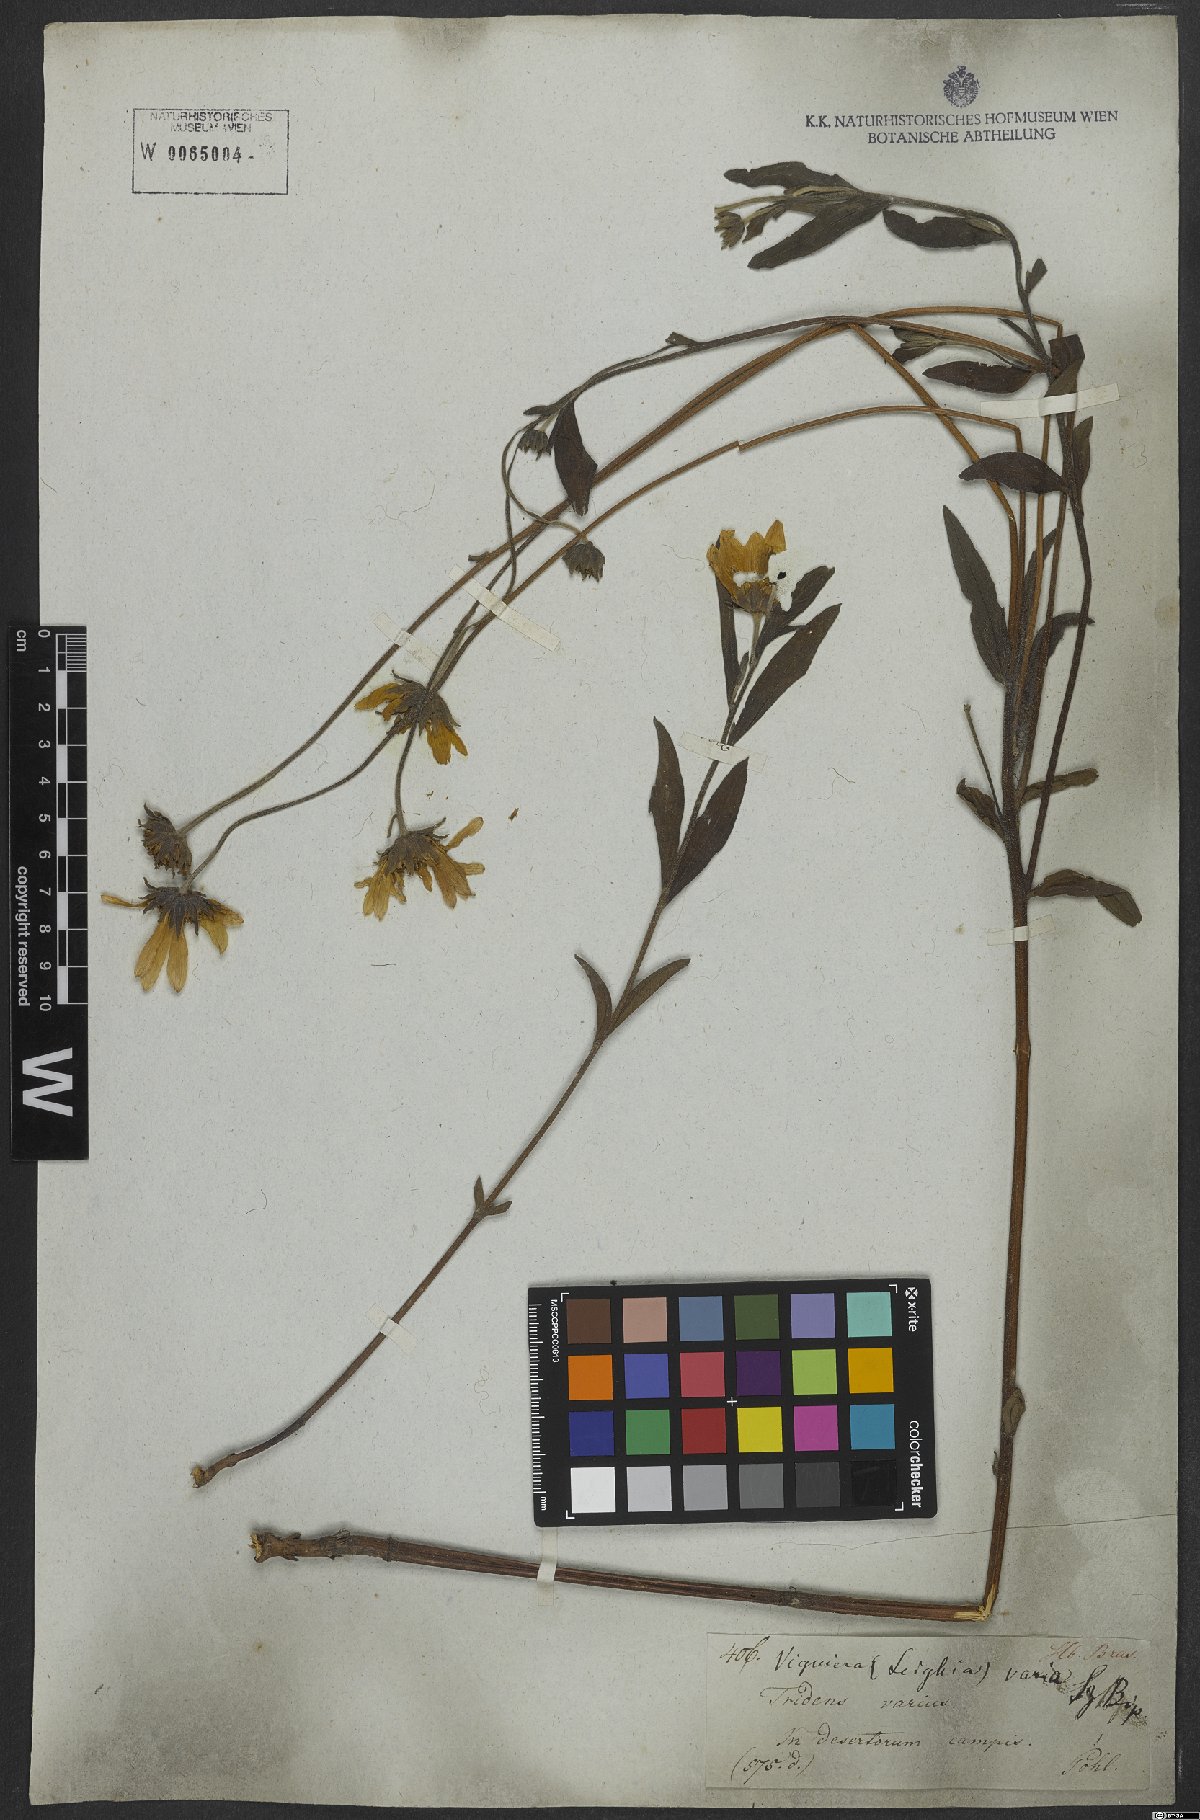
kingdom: Plantae
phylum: Tracheophyta
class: Magnoliopsida
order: Asterales
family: Asteraceae
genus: Aldama
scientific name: Aldama anchusifolia
